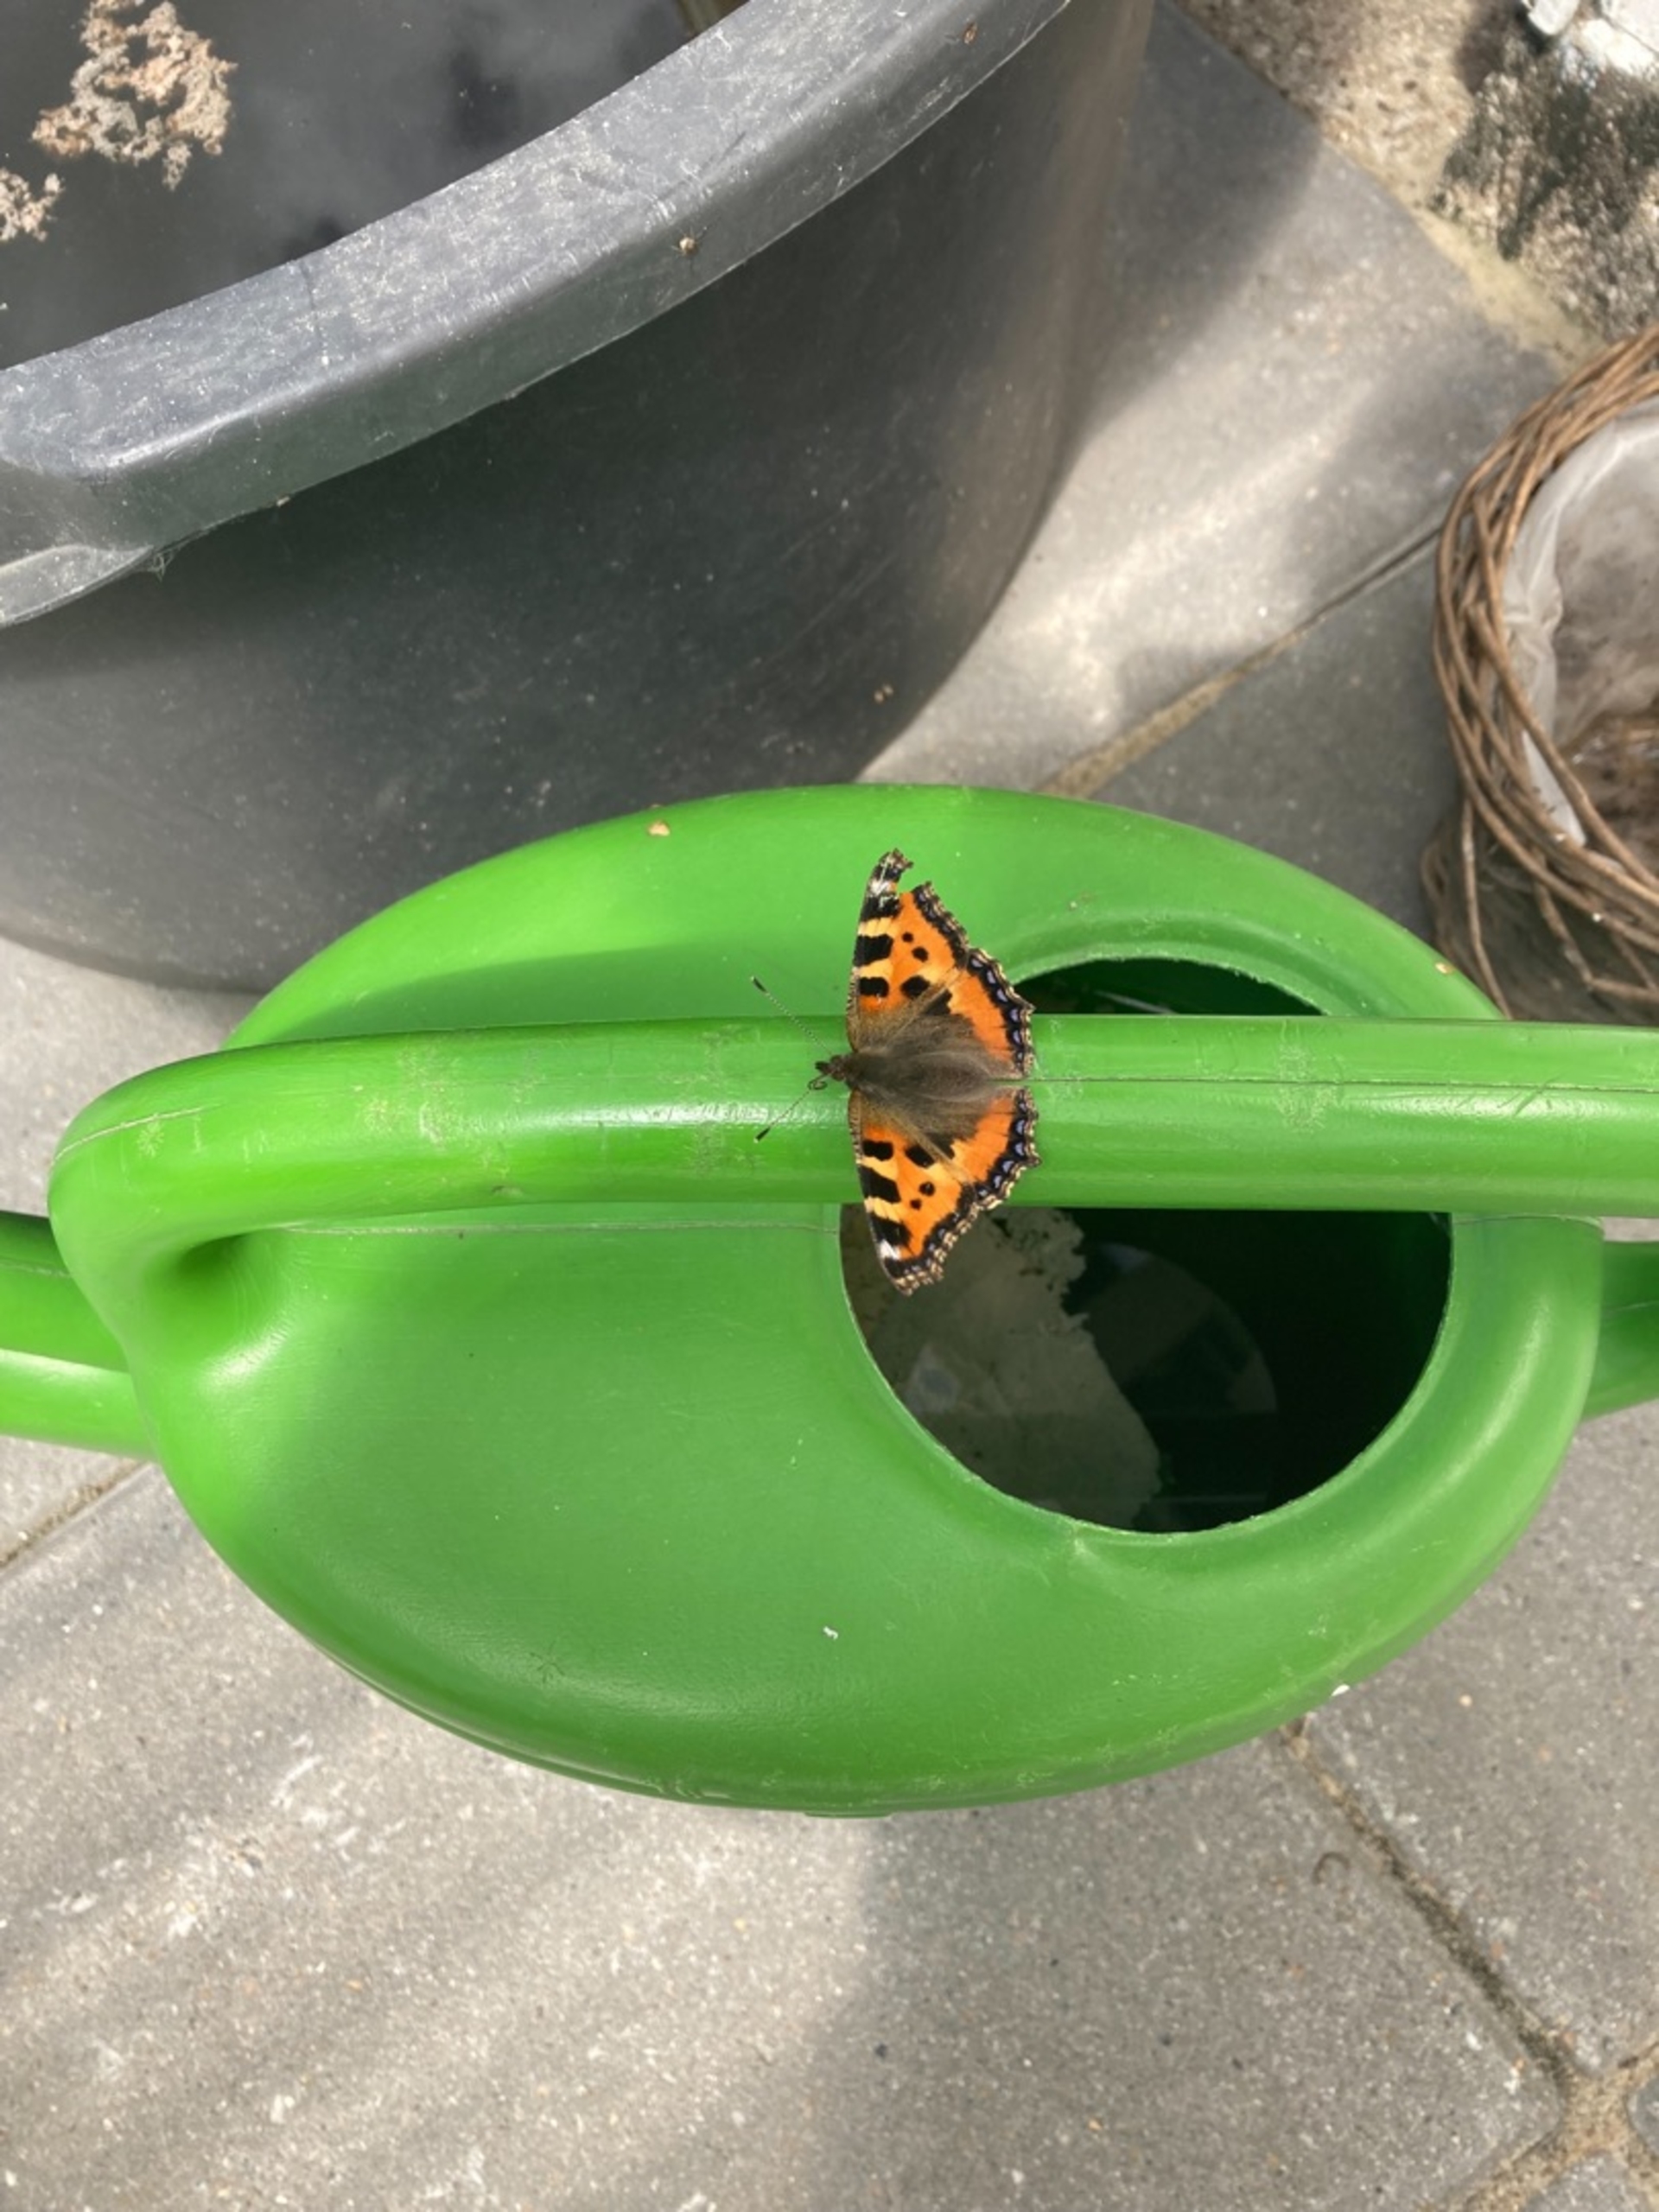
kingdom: Animalia
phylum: Arthropoda
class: Insecta
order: Lepidoptera
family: Nymphalidae
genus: Aglais
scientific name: Aglais urticae
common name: Nældens takvinge
